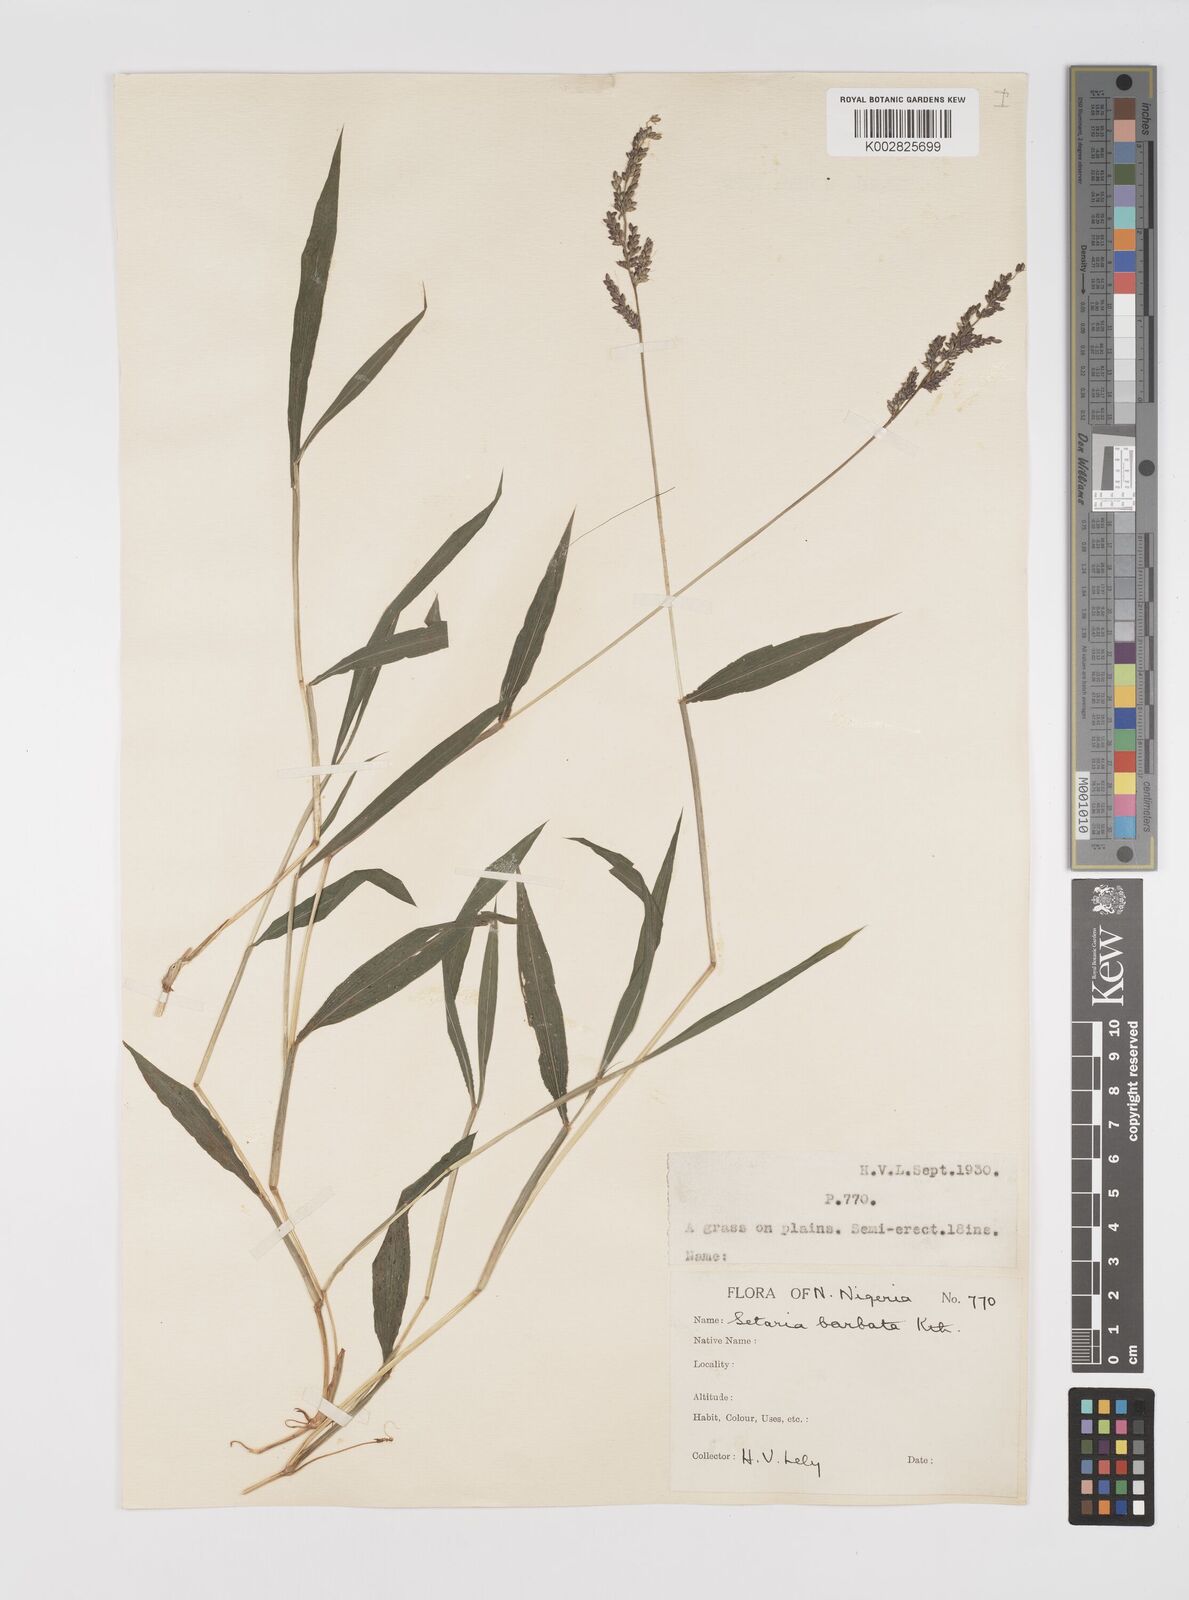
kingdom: Plantae
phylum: Tracheophyta
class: Liliopsida
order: Poales
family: Poaceae
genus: Setaria
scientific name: Setaria barbata
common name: East indian bristlegrass
